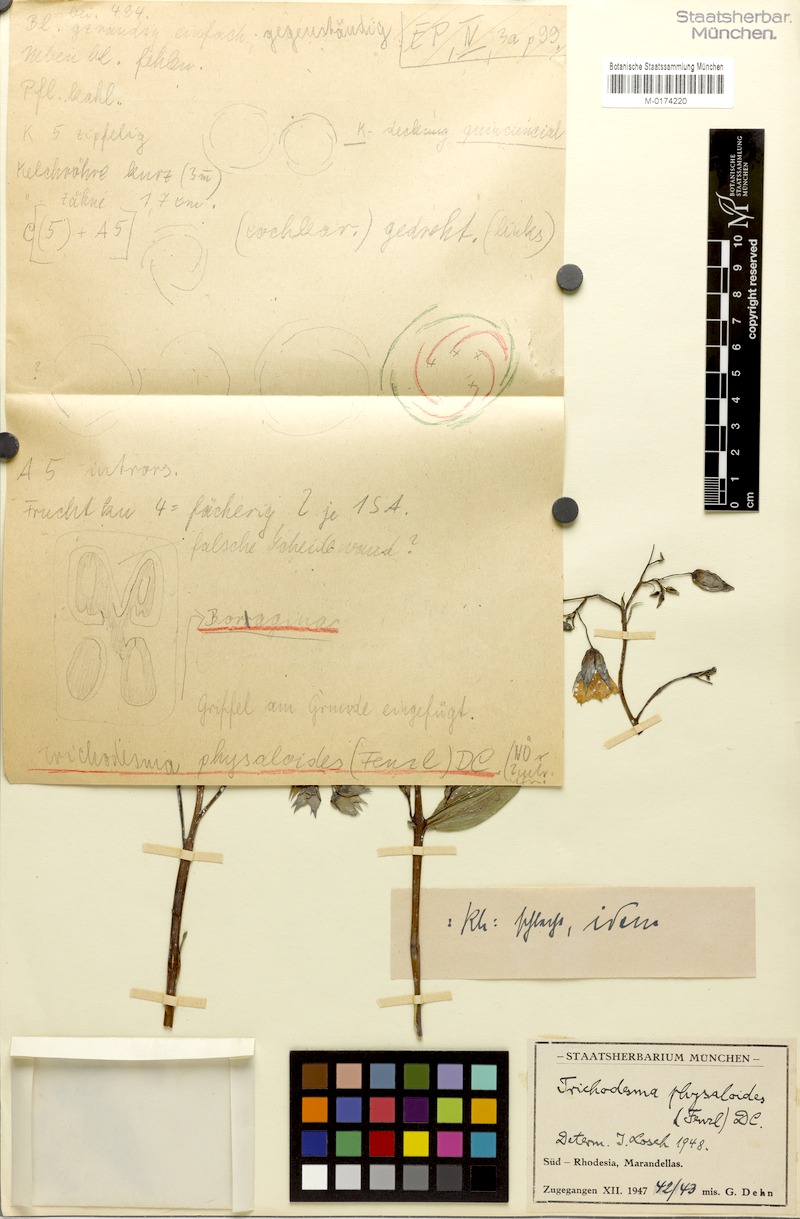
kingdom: Plantae
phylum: Tracheophyta
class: Magnoliopsida
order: Boraginales
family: Boraginaceae
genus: Trichodesma
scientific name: Trichodesma physaloides
